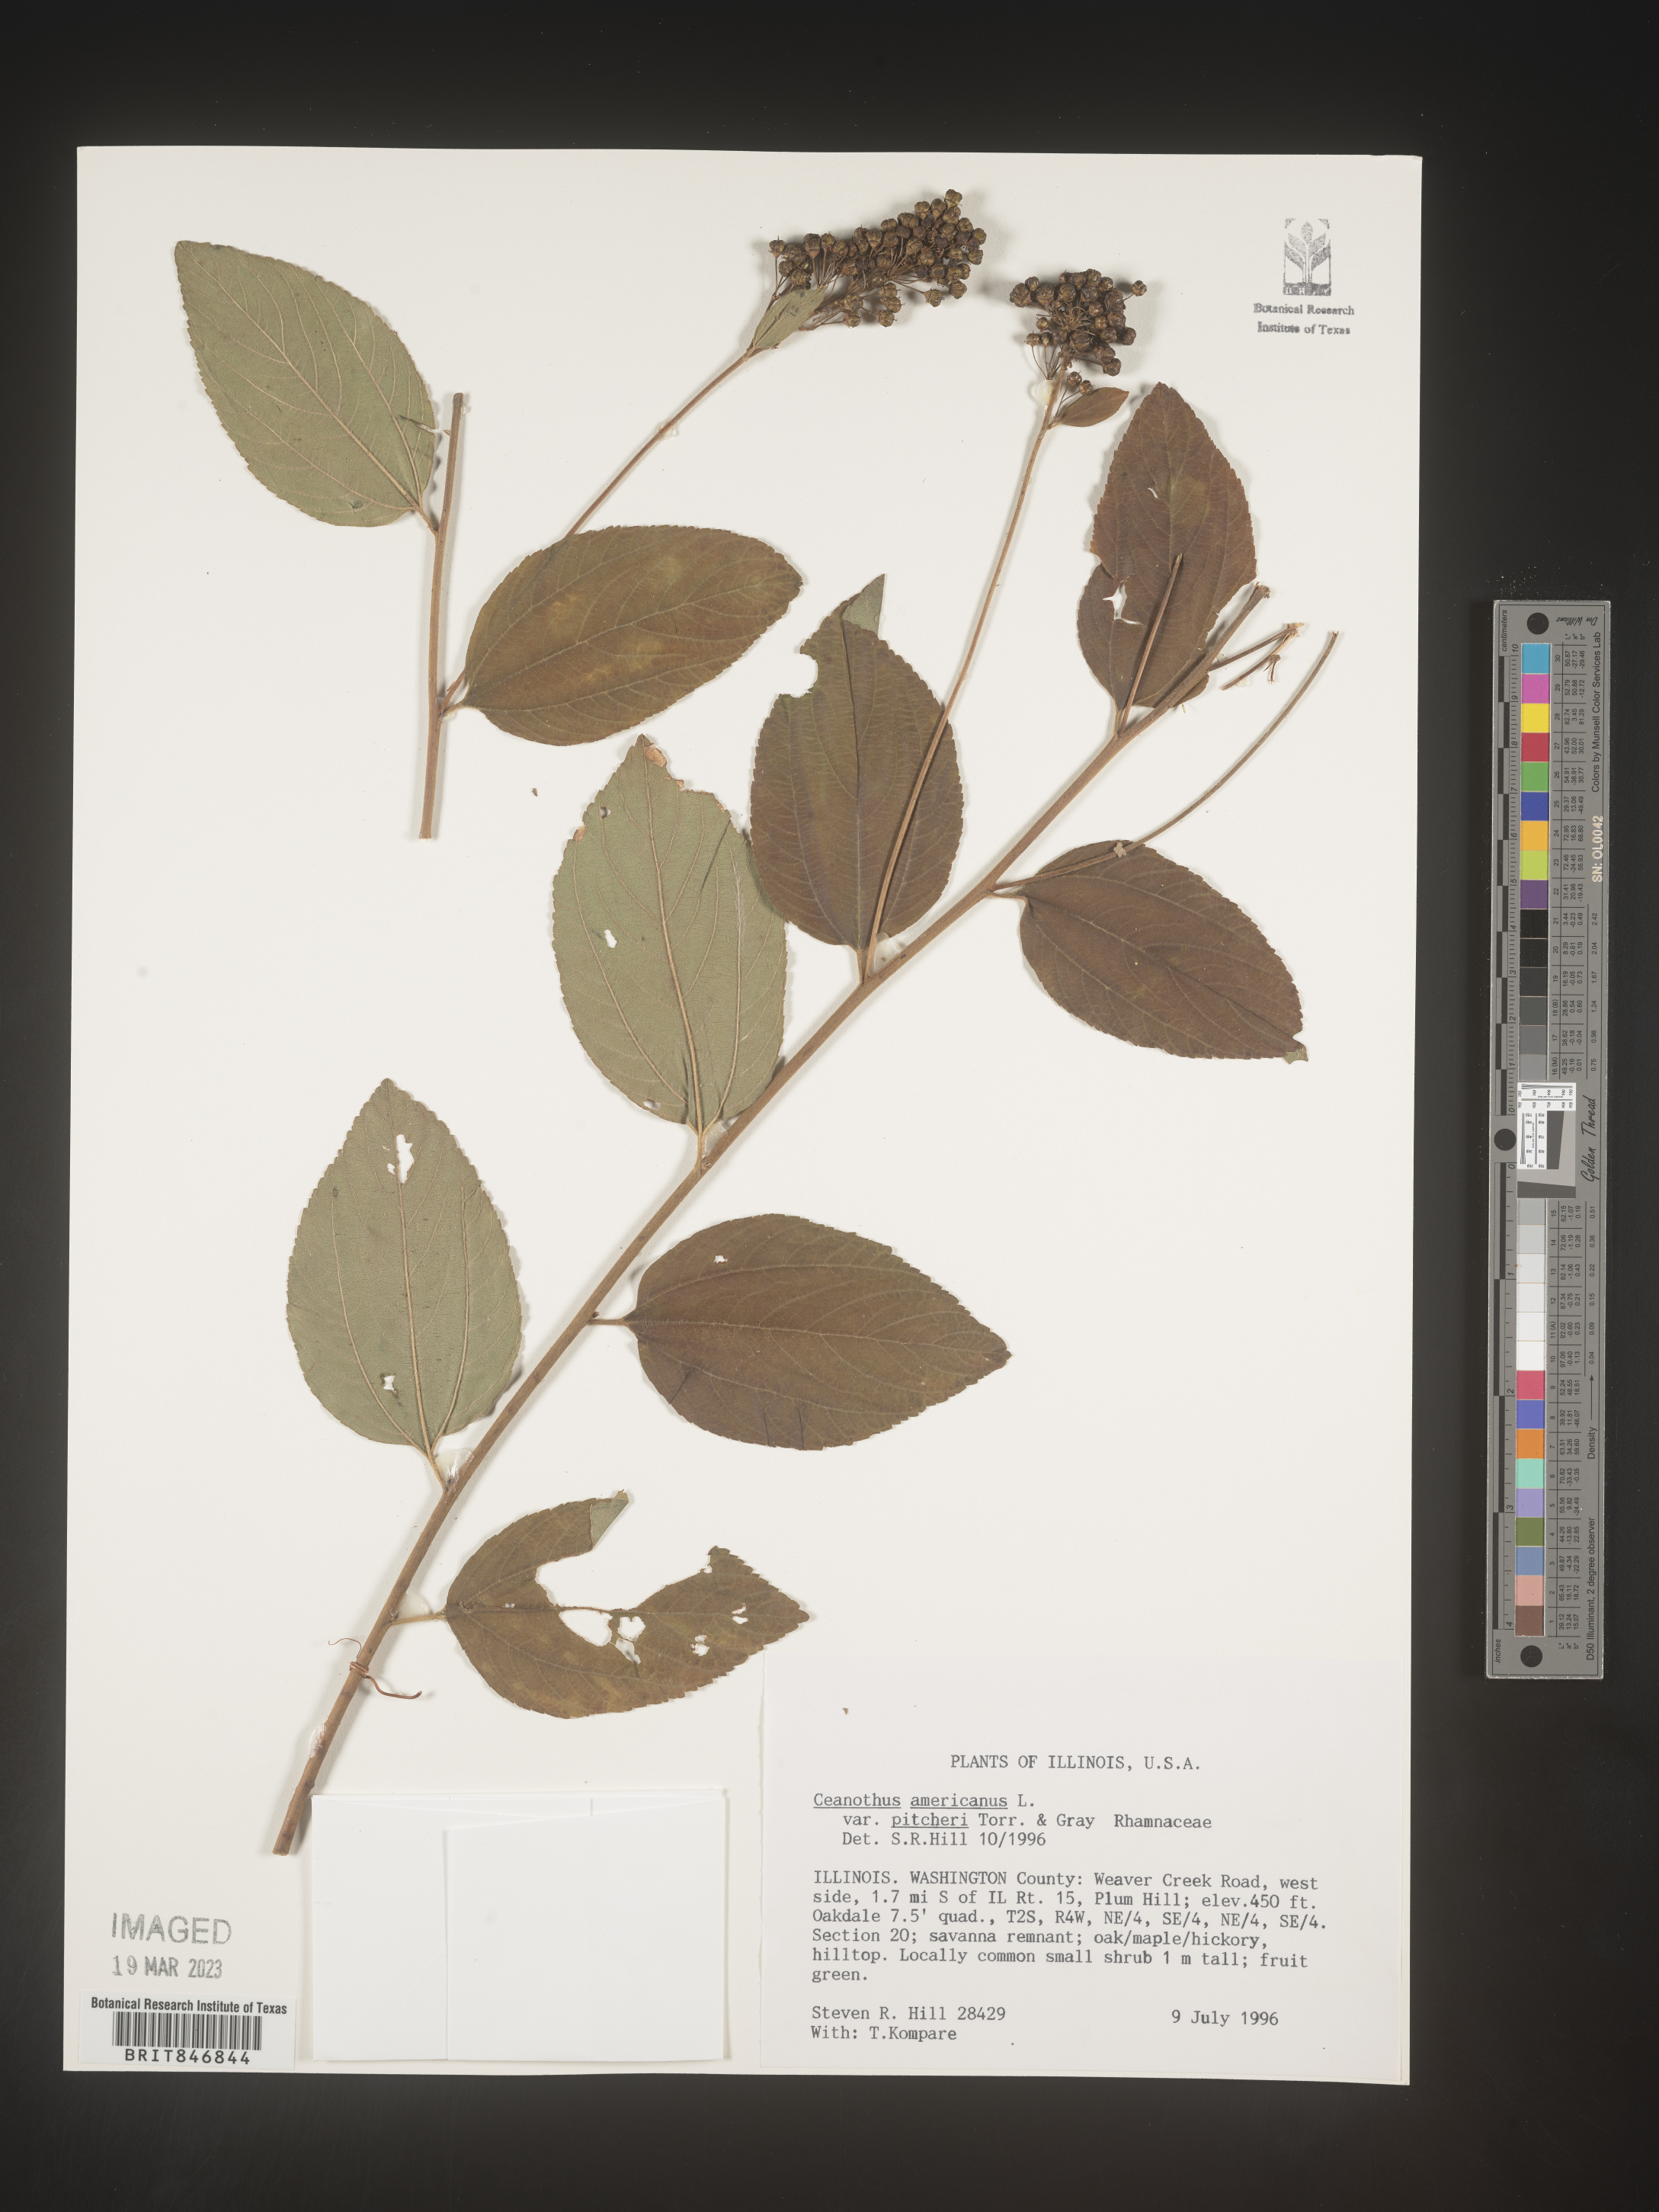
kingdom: Plantae
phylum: Tracheophyta
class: Magnoliopsida
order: Rosales
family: Rhamnaceae
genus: Ceanothus
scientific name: Ceanothus americanus
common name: Redroot
